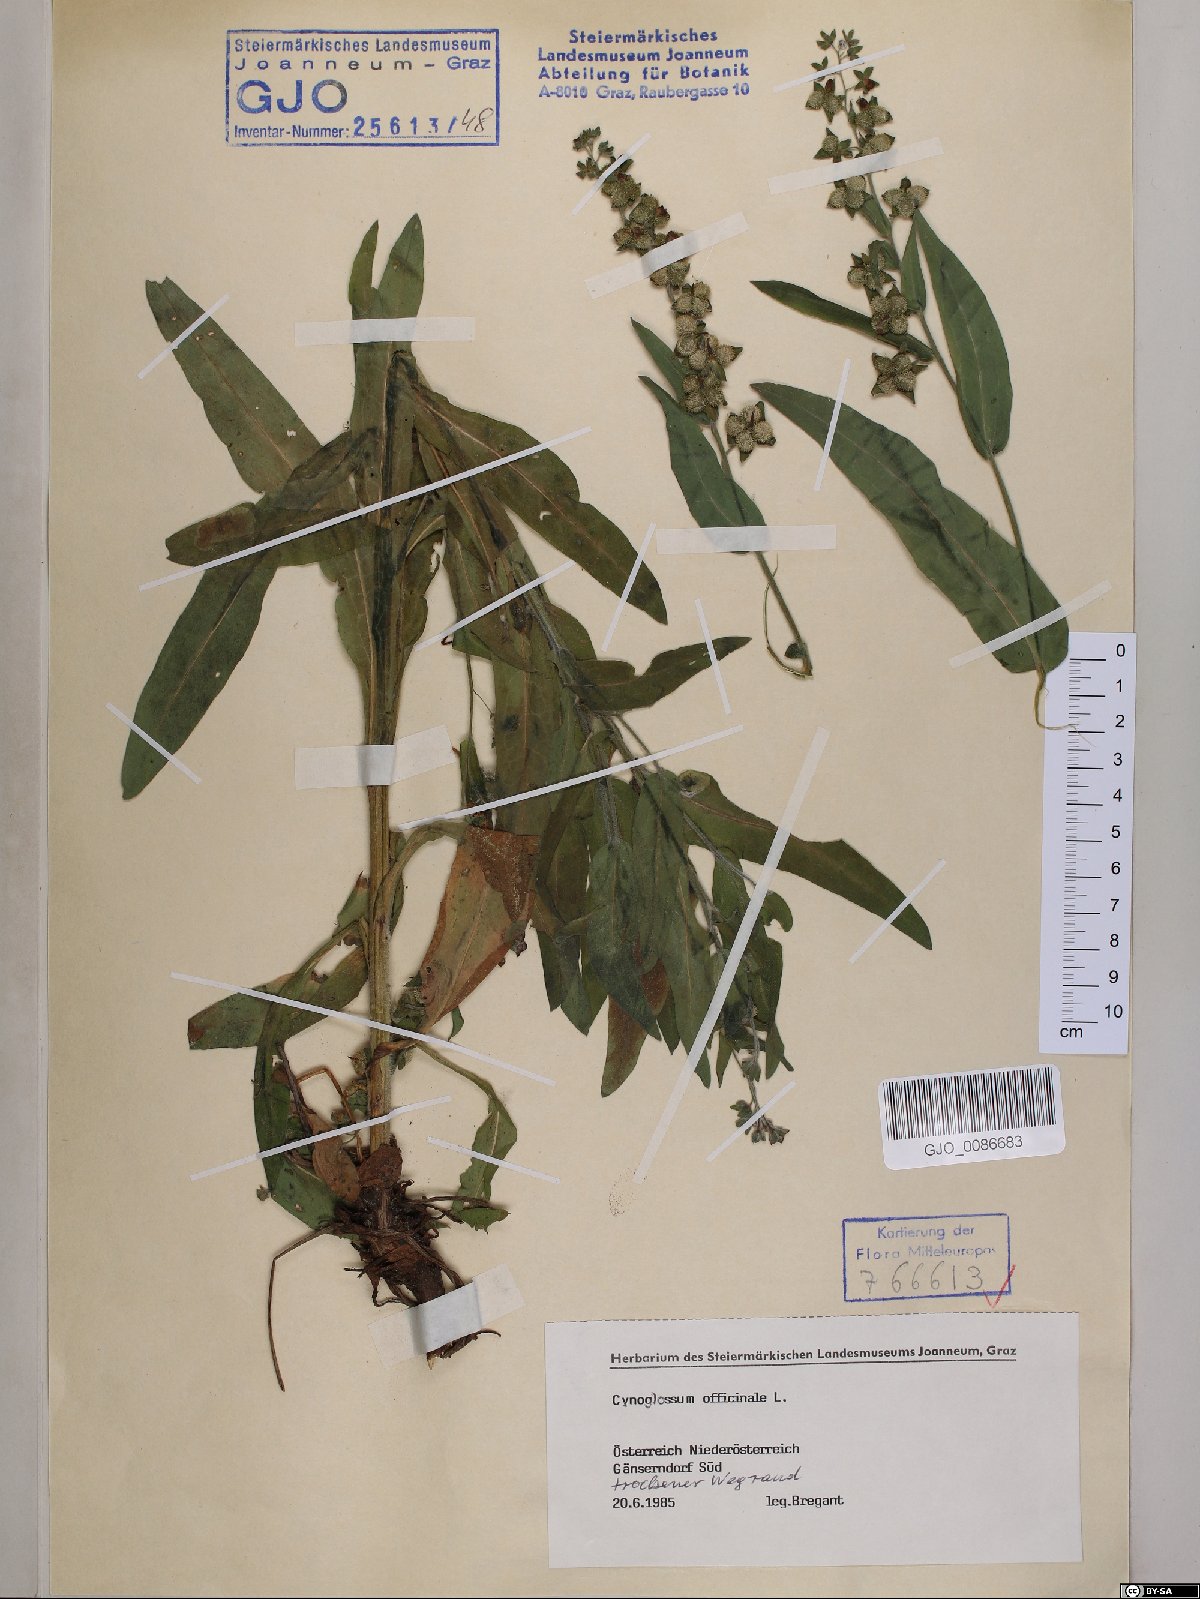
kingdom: Plantae
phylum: Tracheophyta
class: Magnoliopsida
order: Boraginales
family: Boraginaceae
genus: Cynoglossum
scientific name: Cynoglossum officinale
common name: Hound's-tongue
